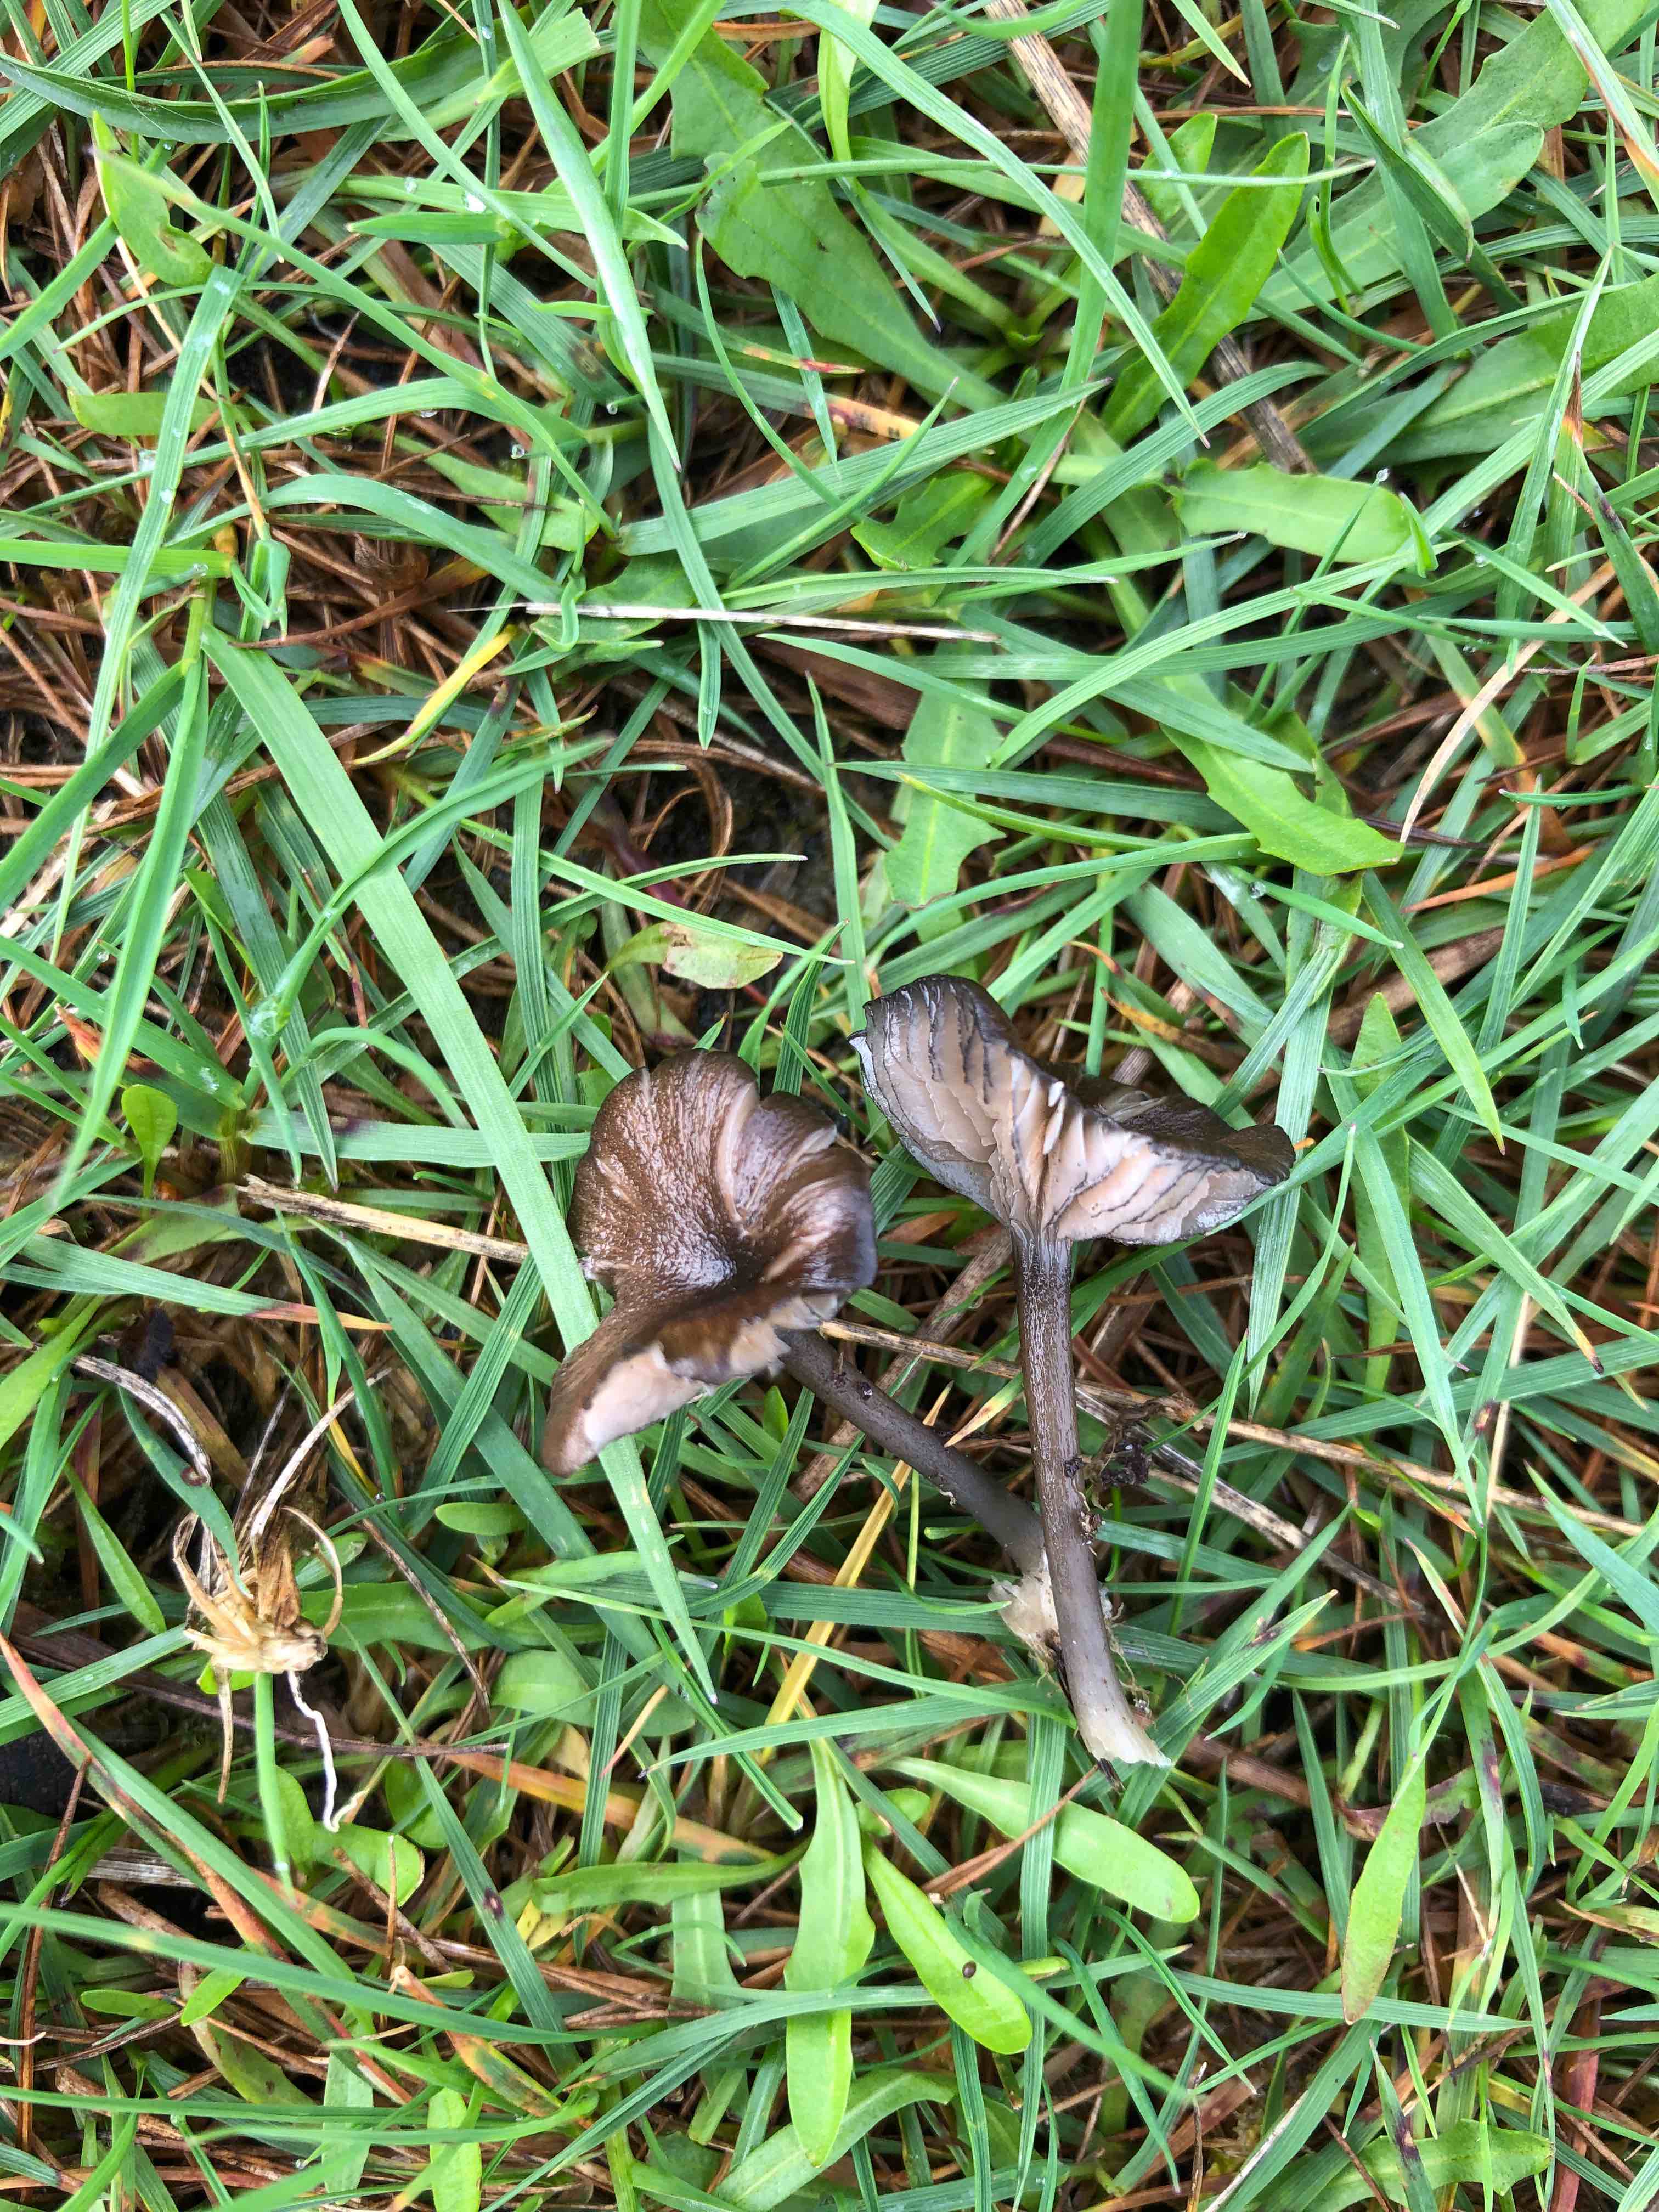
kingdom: Fungi
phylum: Basidiomycota
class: Agaricomycetes
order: Agaricales
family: Entolomataceae
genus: Entoloma
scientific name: Entoloma
